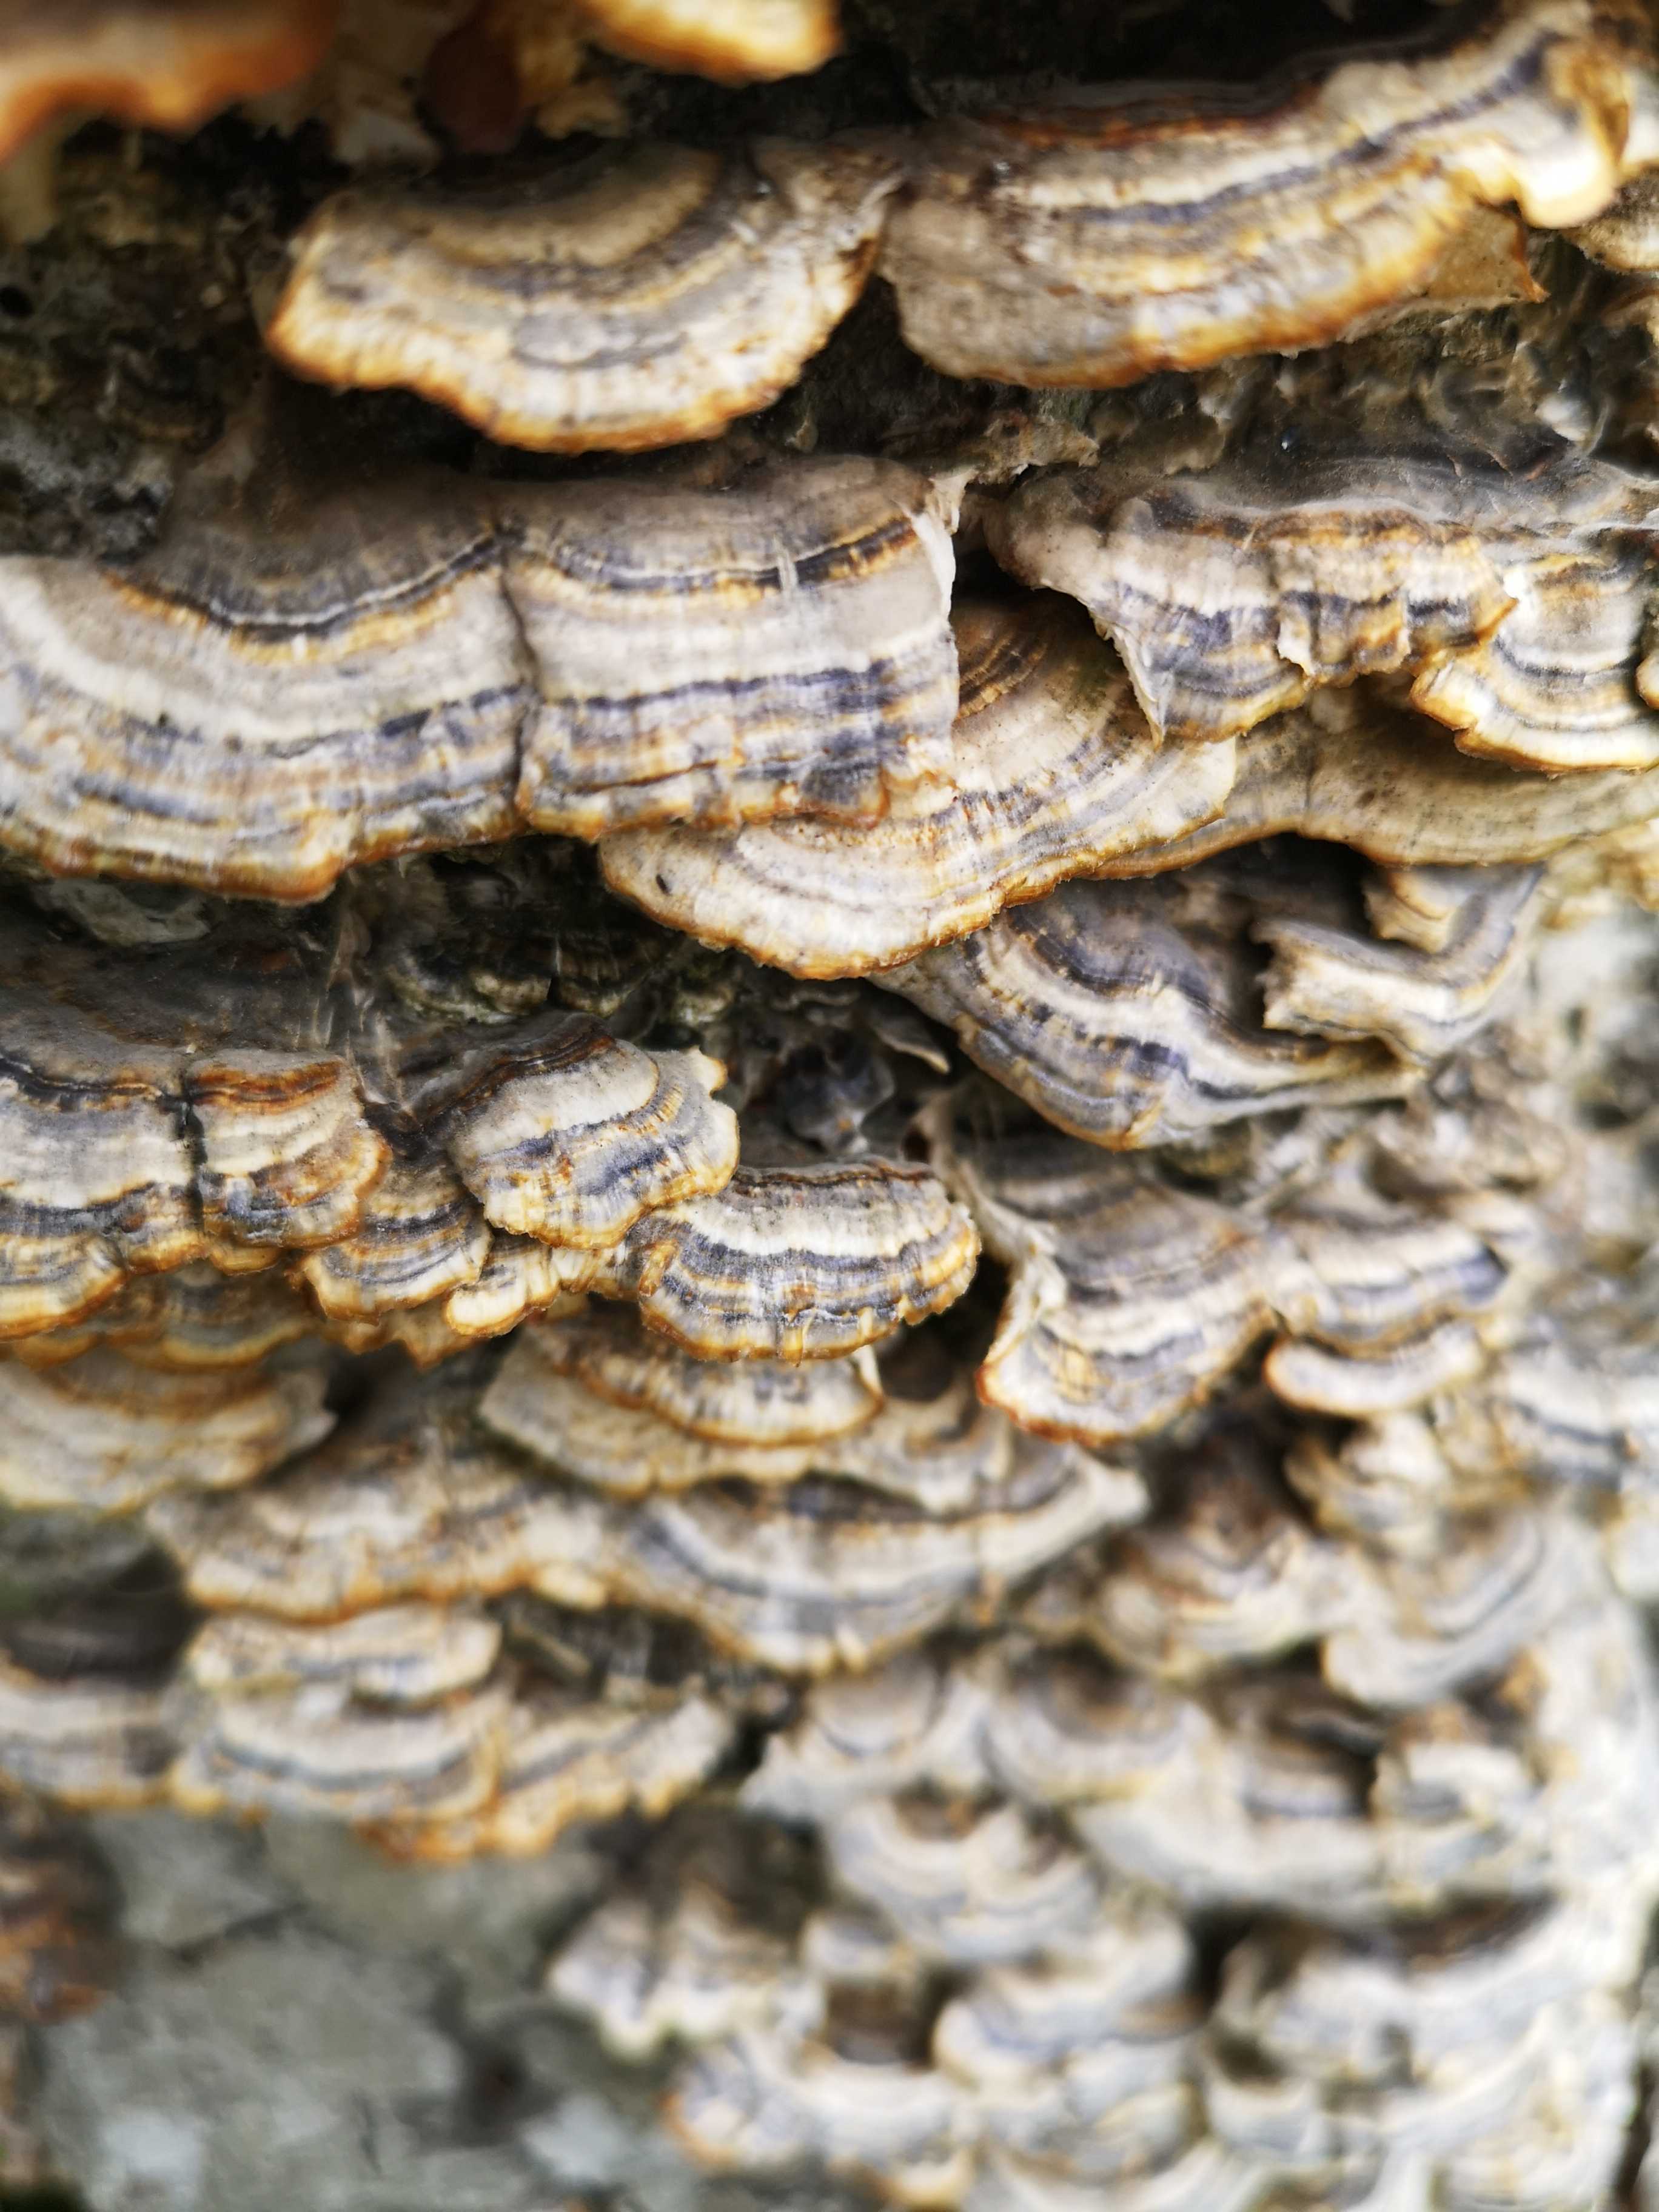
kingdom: Fungi
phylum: Basidiomycota
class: Agaricomycetes
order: Polyporales
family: Polyporaceae
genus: Trametes
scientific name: Trametes versicolor
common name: broget læderporesvamp
